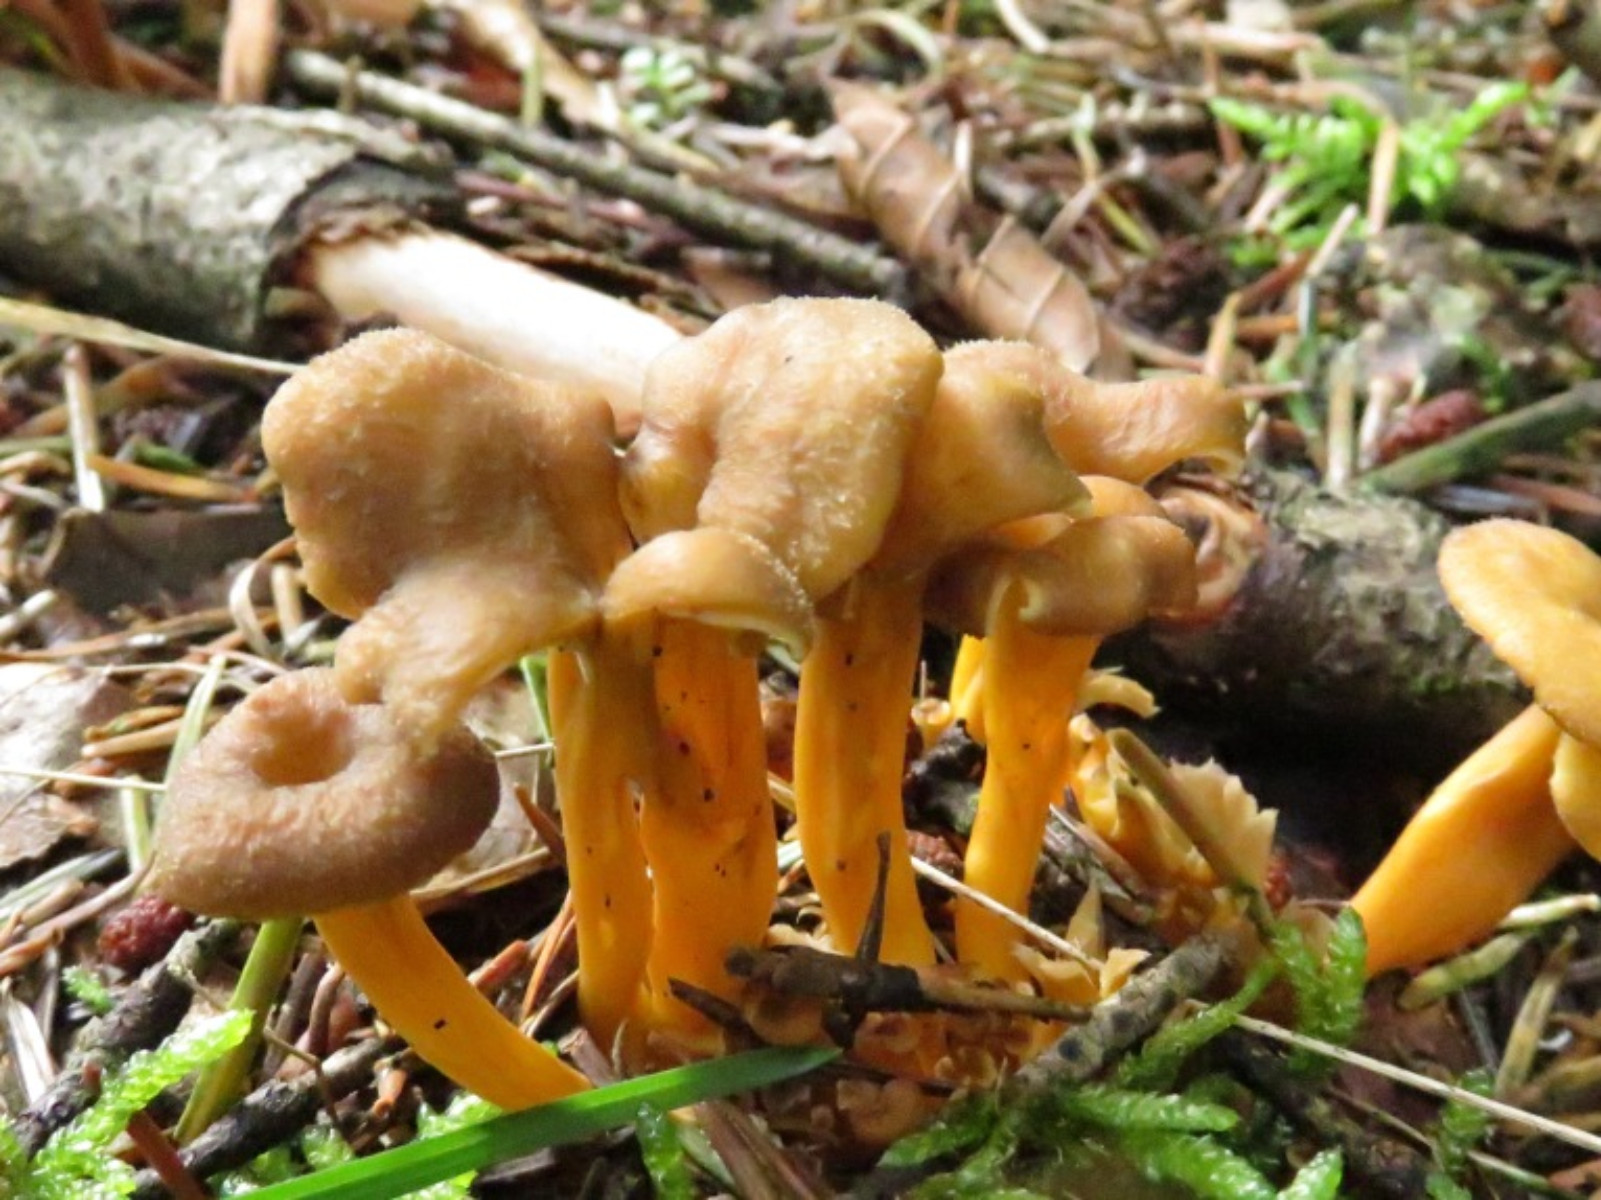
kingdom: Fungi
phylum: Basidiomycota
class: Agaricomycetes
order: Cantharellales
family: Hydnaceae
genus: Craterellus
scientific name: Craterellus tubaeformis
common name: tragt-kantarel
